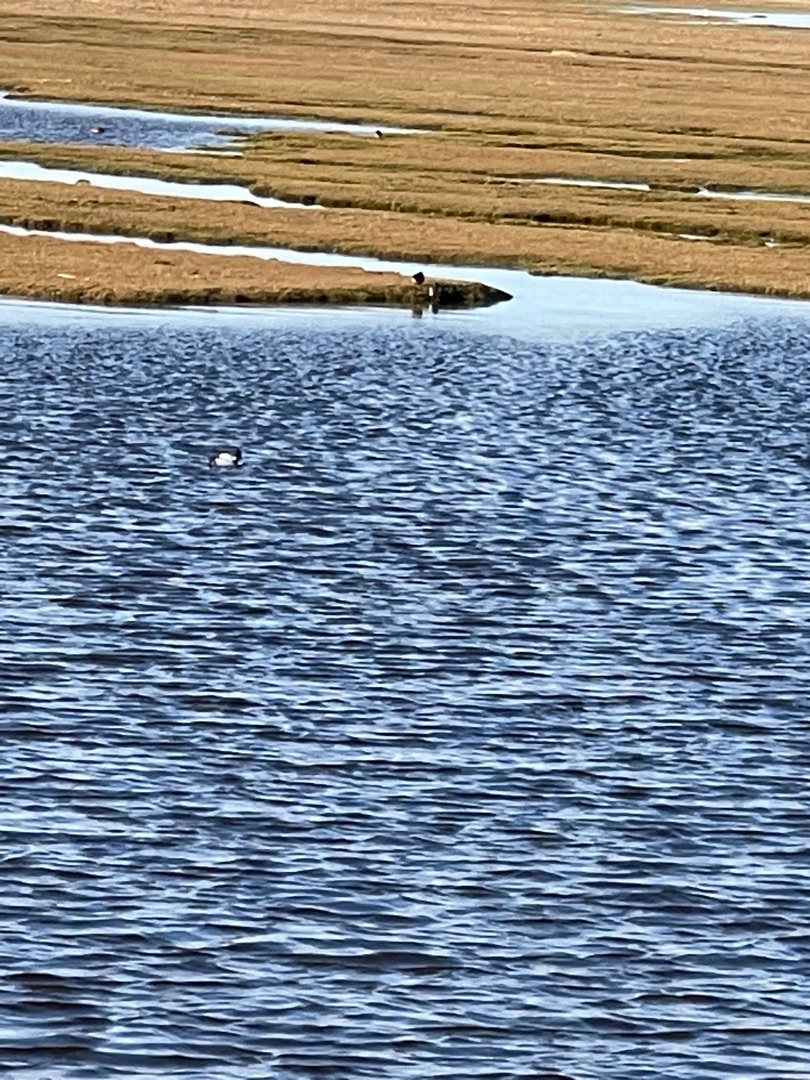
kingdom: Animalia
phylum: Chordata
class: Aves
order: Anseriformes
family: Anatidae
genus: Bucephala
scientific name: Bucephala clangula
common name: Hvinand
